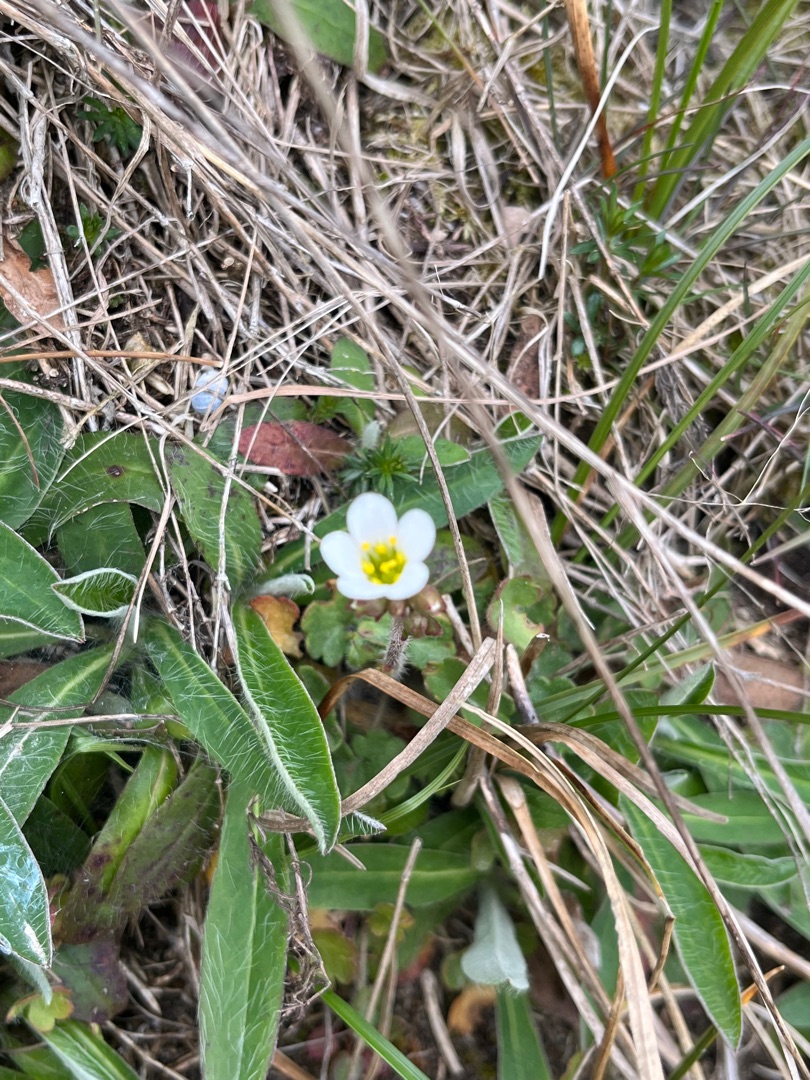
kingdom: Plantae
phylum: Tracheophyta
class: Magnoliopsida
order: Saxifragales
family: Saxifragaceae
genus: Saxifraga
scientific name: Saxifraga granulata
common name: Kornet stenbræk
